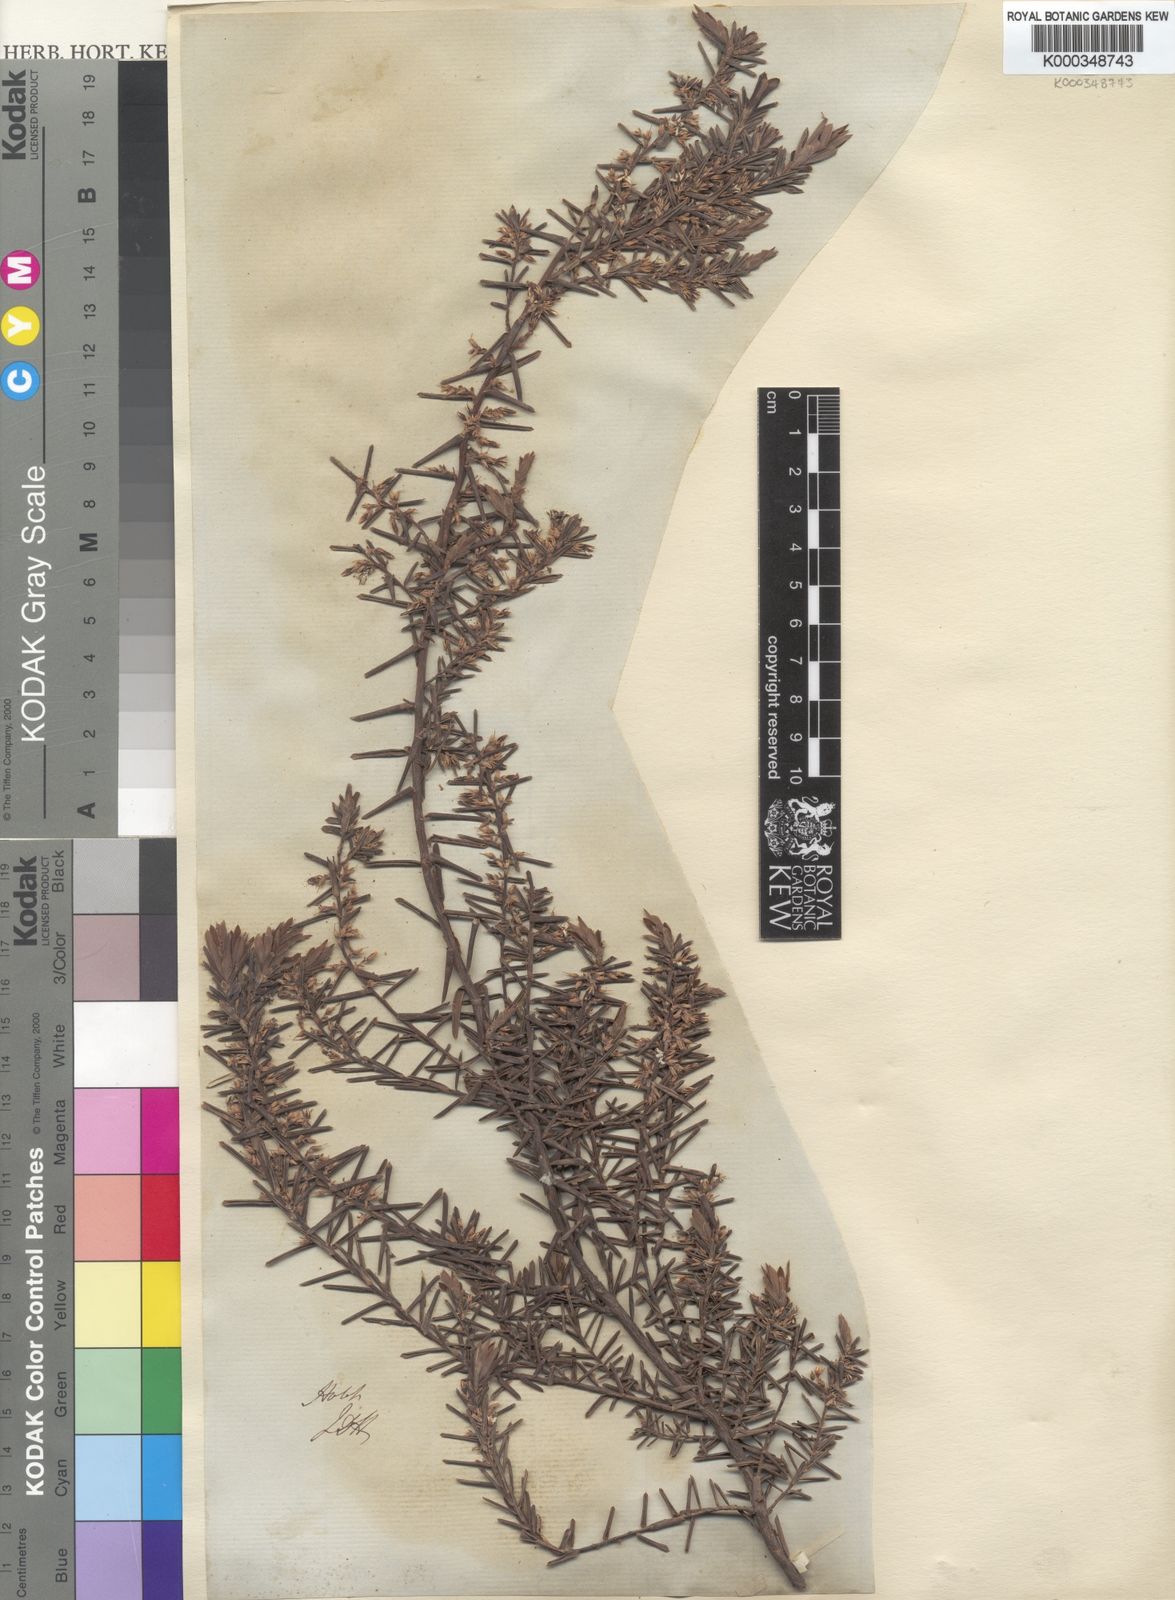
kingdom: Plantae
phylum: Tracheophyta
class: Magnoliopsida
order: Ericales
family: Ericaceae
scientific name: Ericaceae
